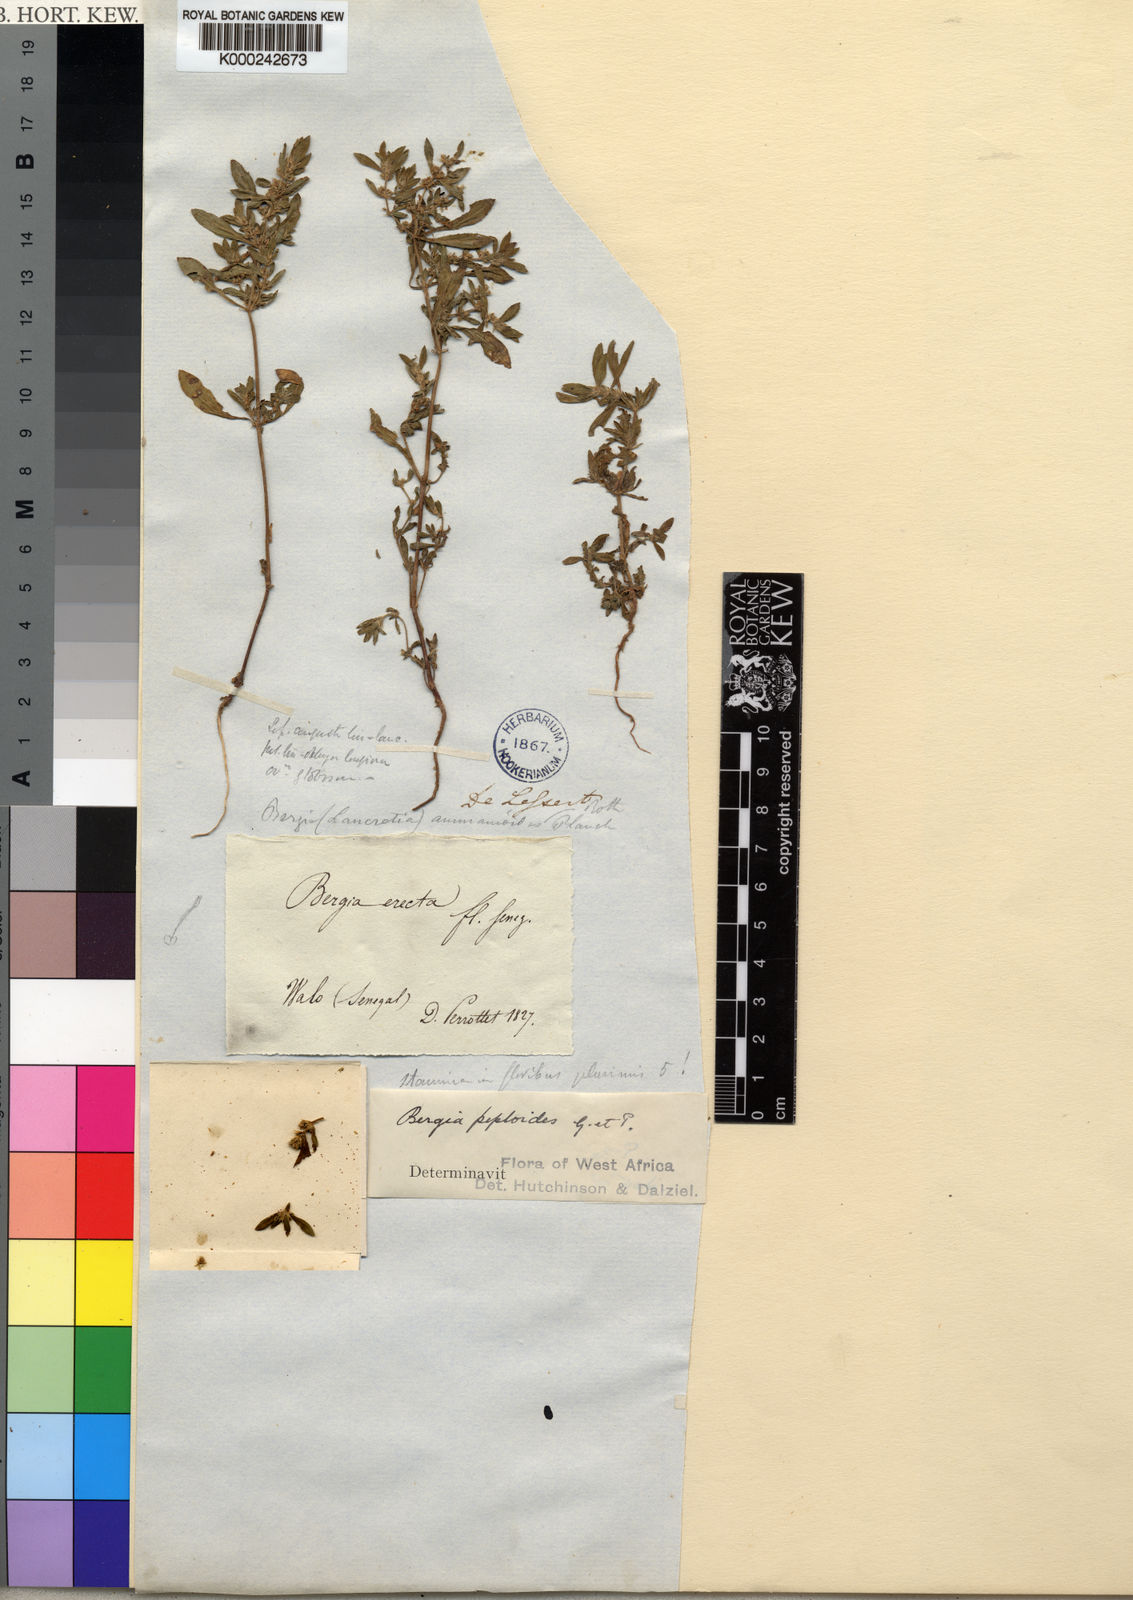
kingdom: Plantae
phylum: Tracheophyta
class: Magnoliopsida
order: Malpighiales
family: Elatinaceae
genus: Bergia
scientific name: Bergia ammannioides
